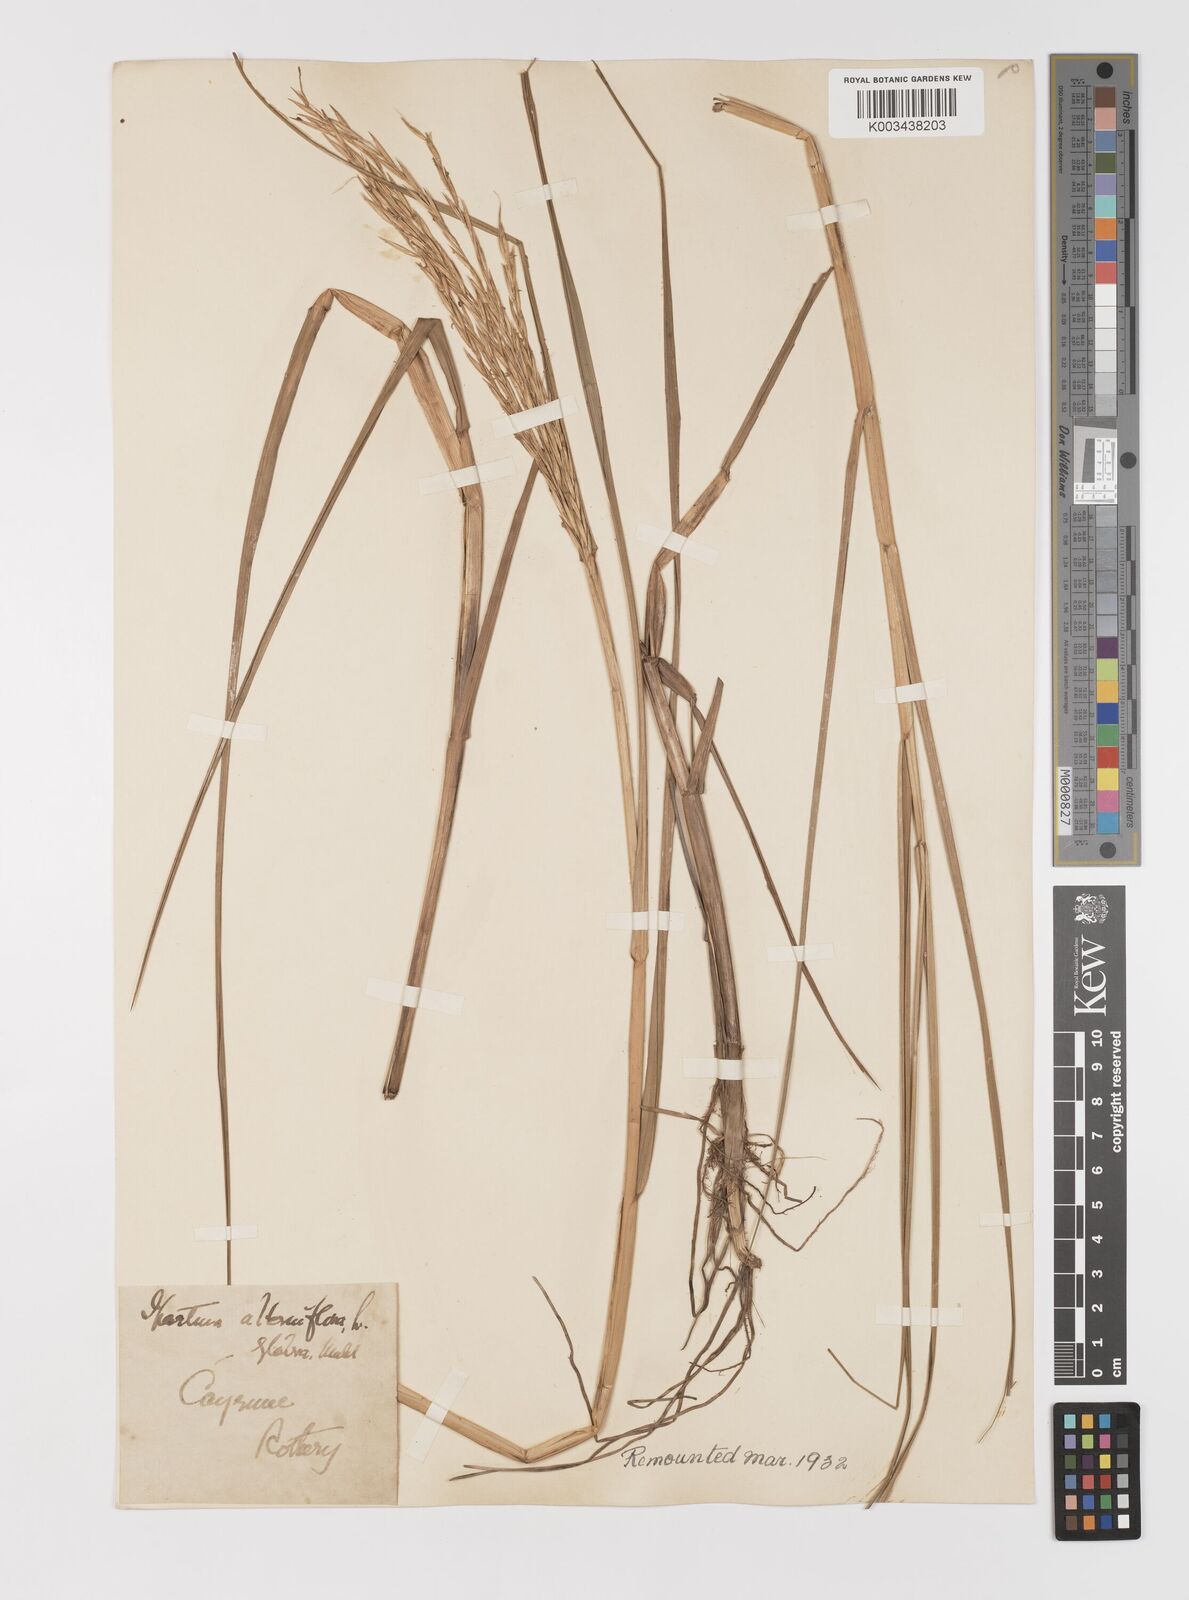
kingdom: Plantae
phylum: Tracheophyta
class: Liliopsida
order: Poales
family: Poaceae
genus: Sporobolus
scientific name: Sporobolus alterniflorus
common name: Atlantic cordgrass
